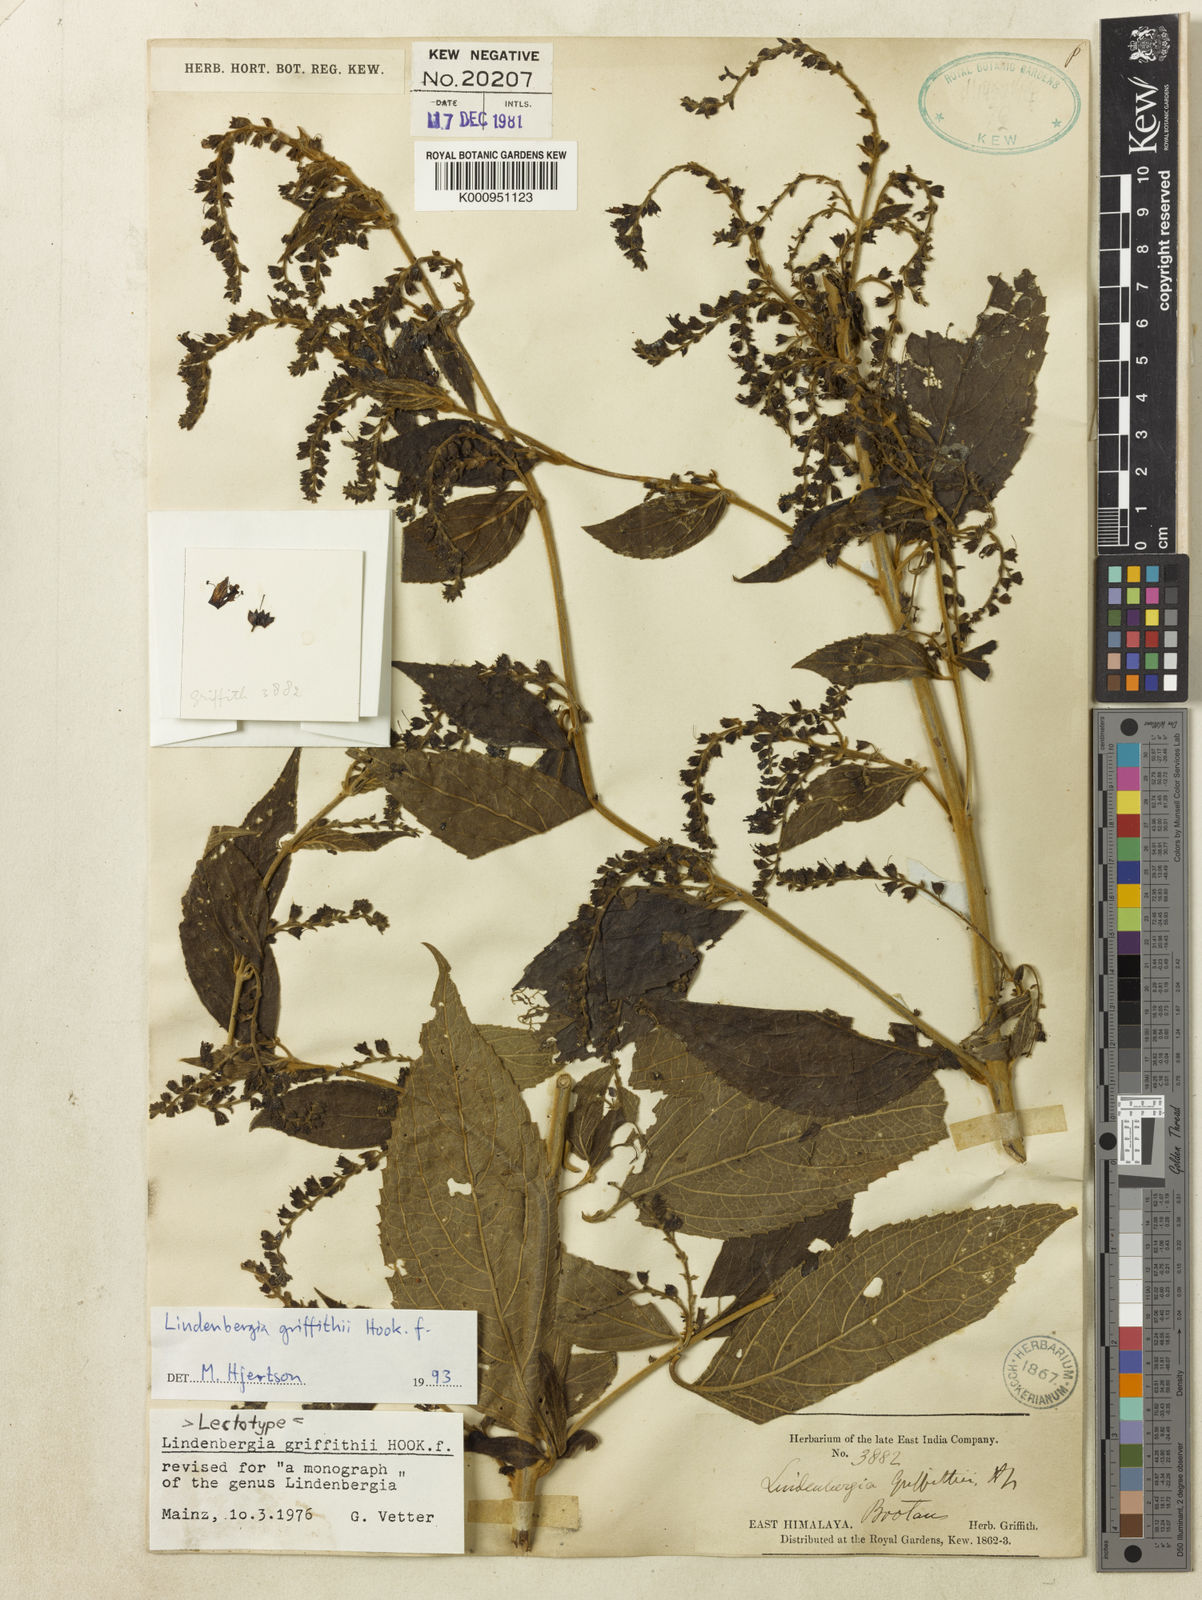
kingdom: Plantae
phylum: Tracheophyta
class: Magnoliopsida
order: Lamiales
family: Orobanchaceae
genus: Lindenbergia
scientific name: Lindenbergia griffithii
